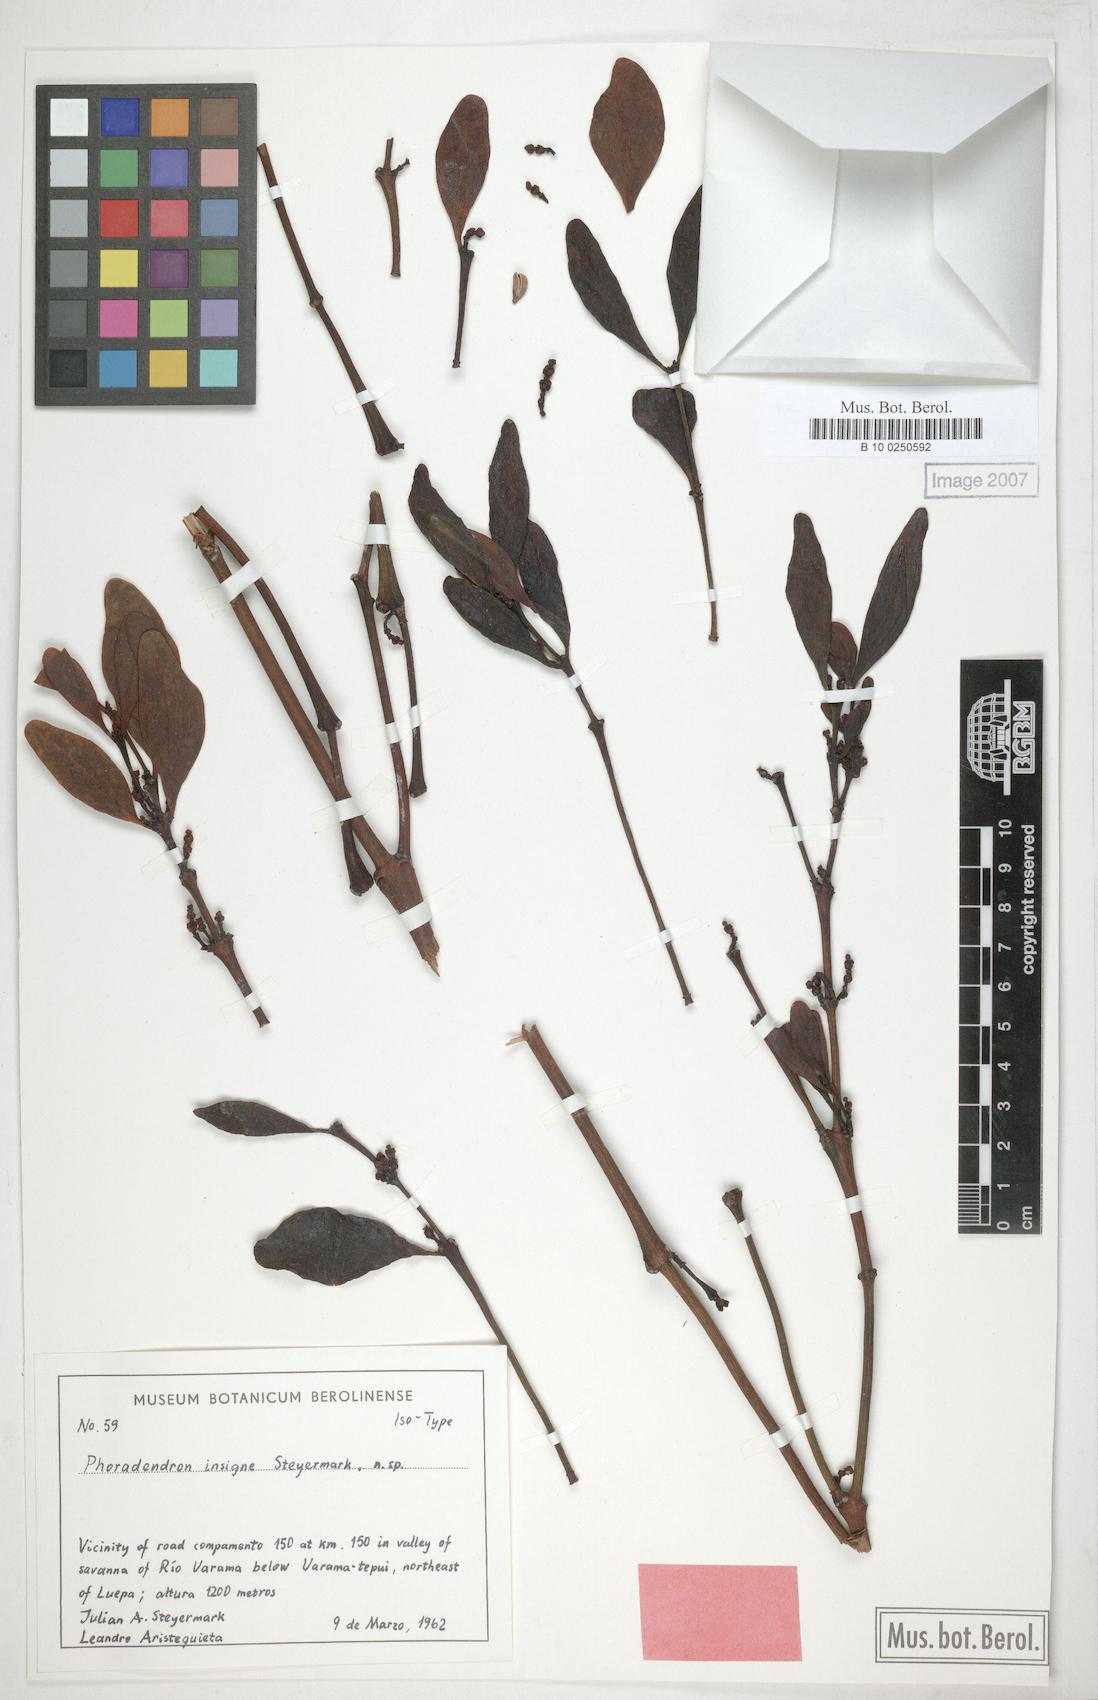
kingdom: Plantae
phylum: Tracheophyta
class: Magnoliopsida
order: Santalales
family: Viscaceae
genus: Phoradendron
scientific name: Phoradendron pellucidulum
